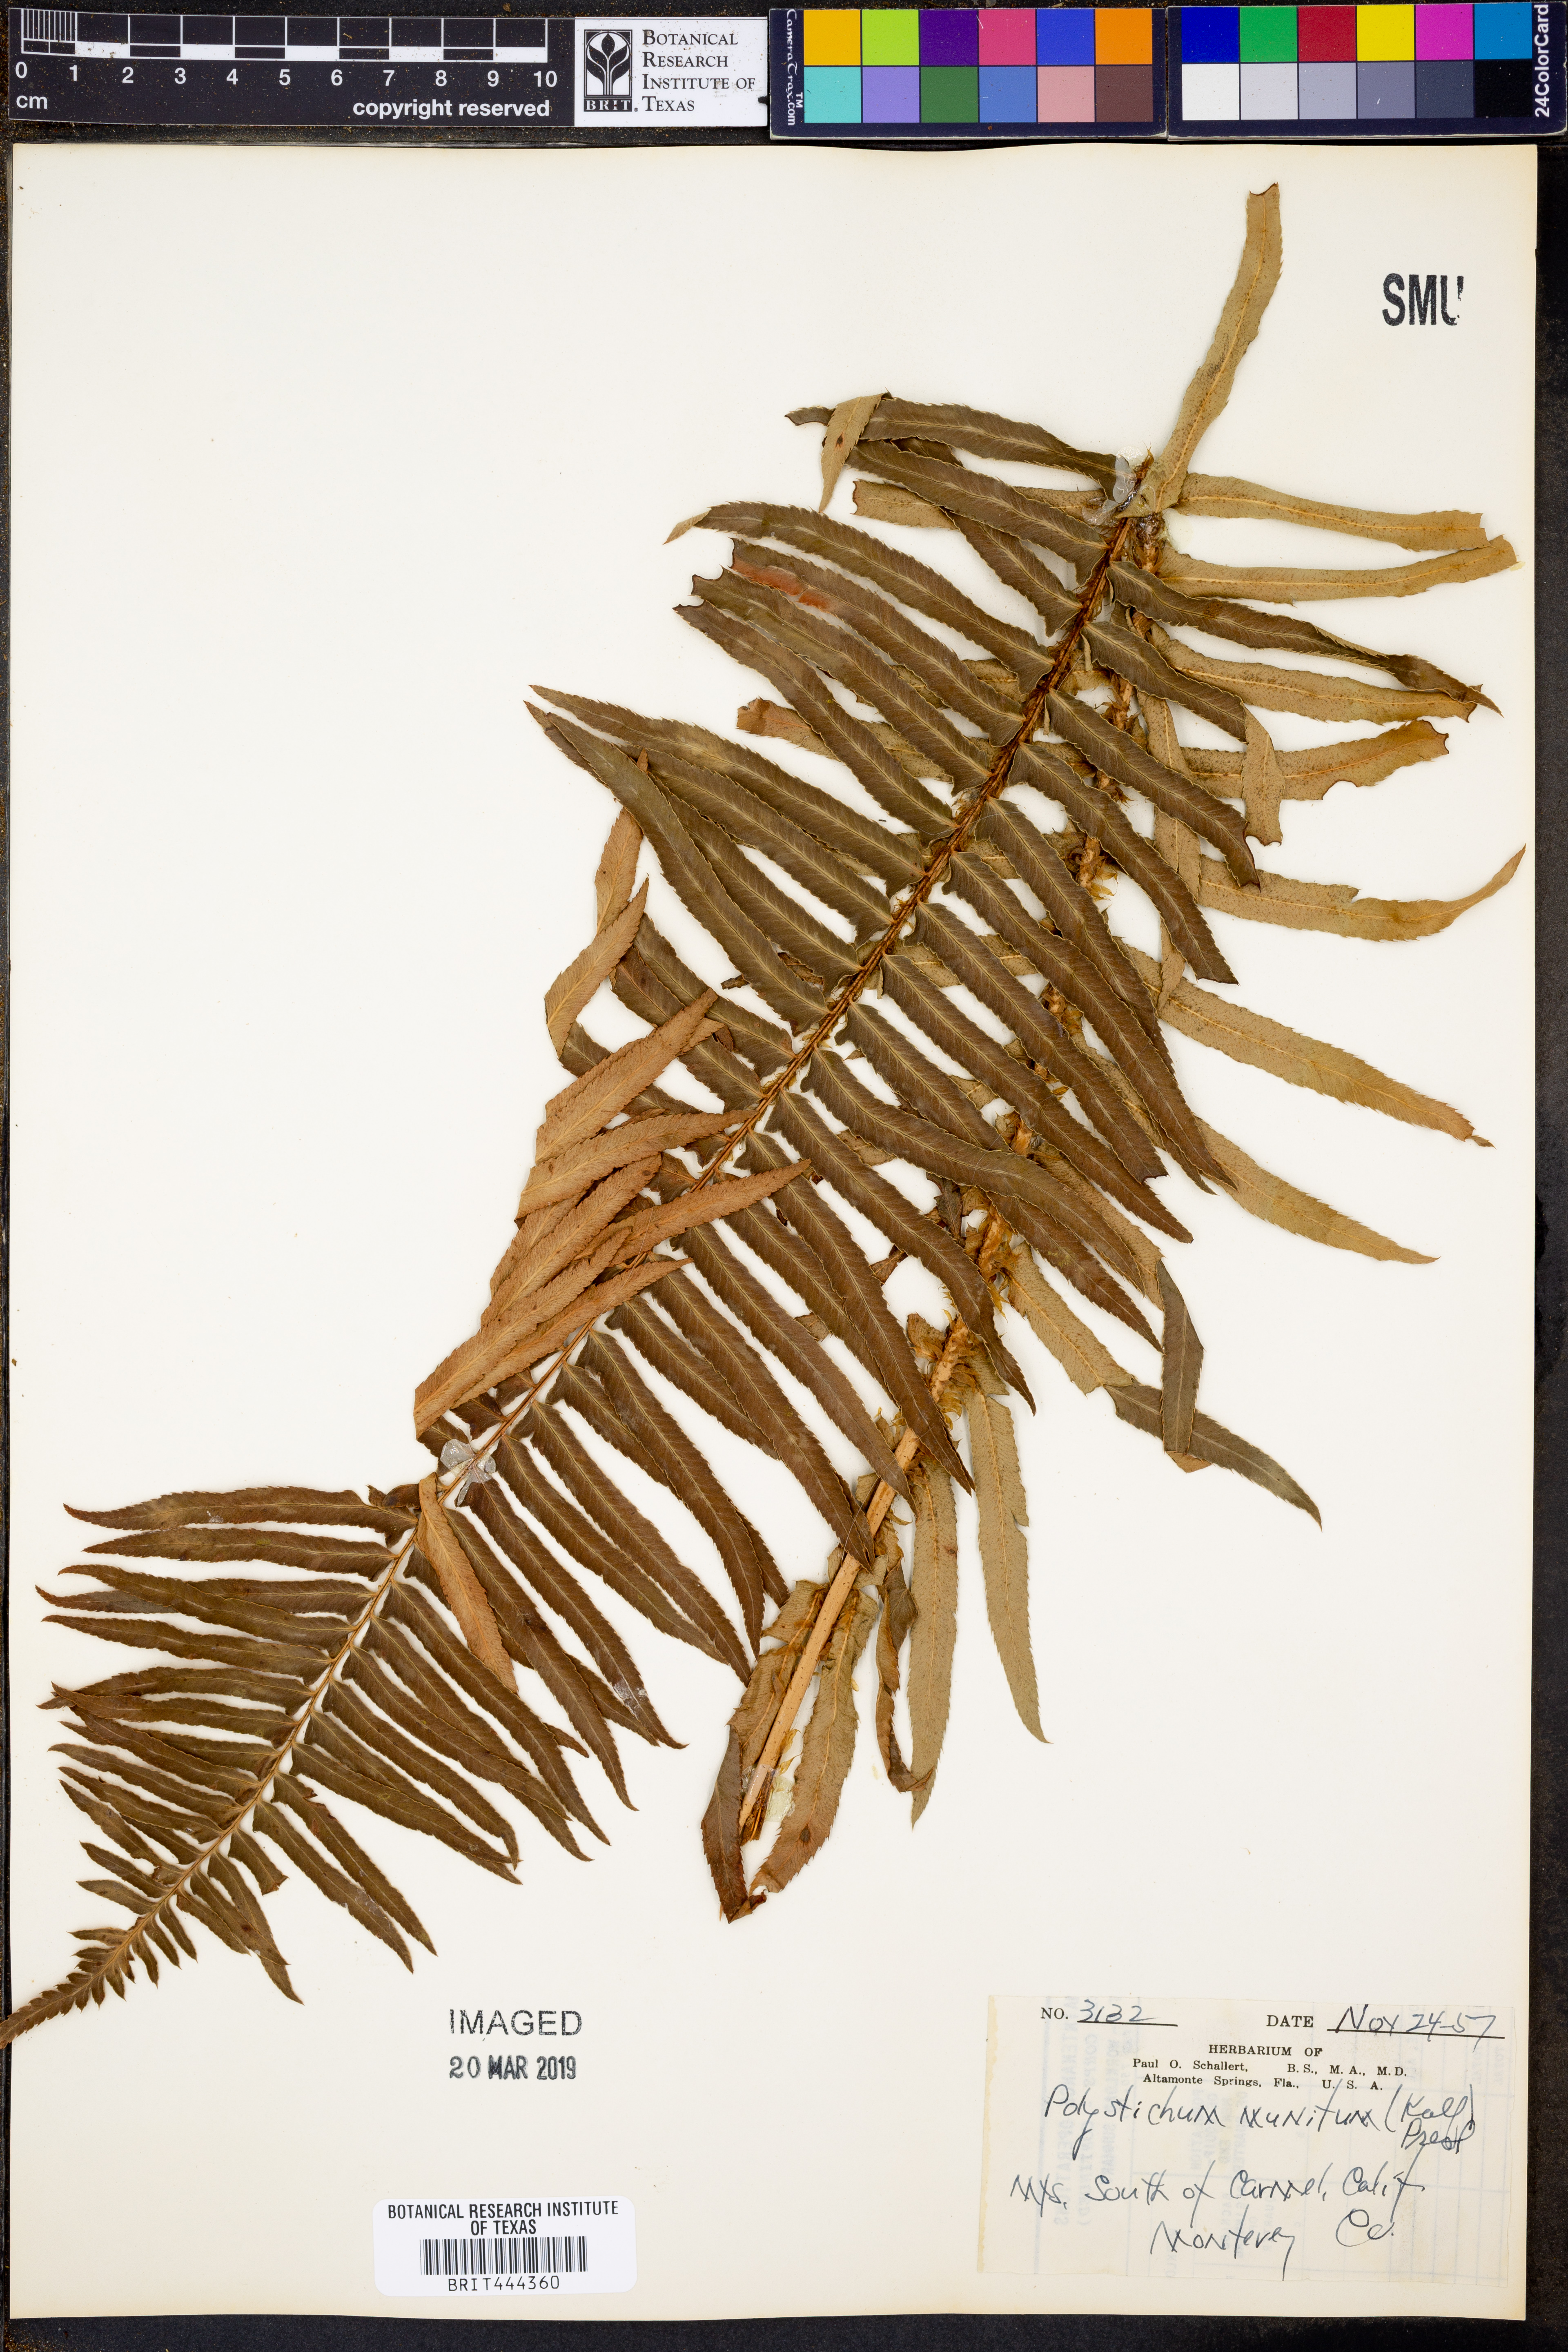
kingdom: Plantae
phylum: Tracheophyta
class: Polypodiopsida
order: Polypodiales
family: Dryopteridaceae
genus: Polystichum
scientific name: Polystichum munitum
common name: Western sword-fern
